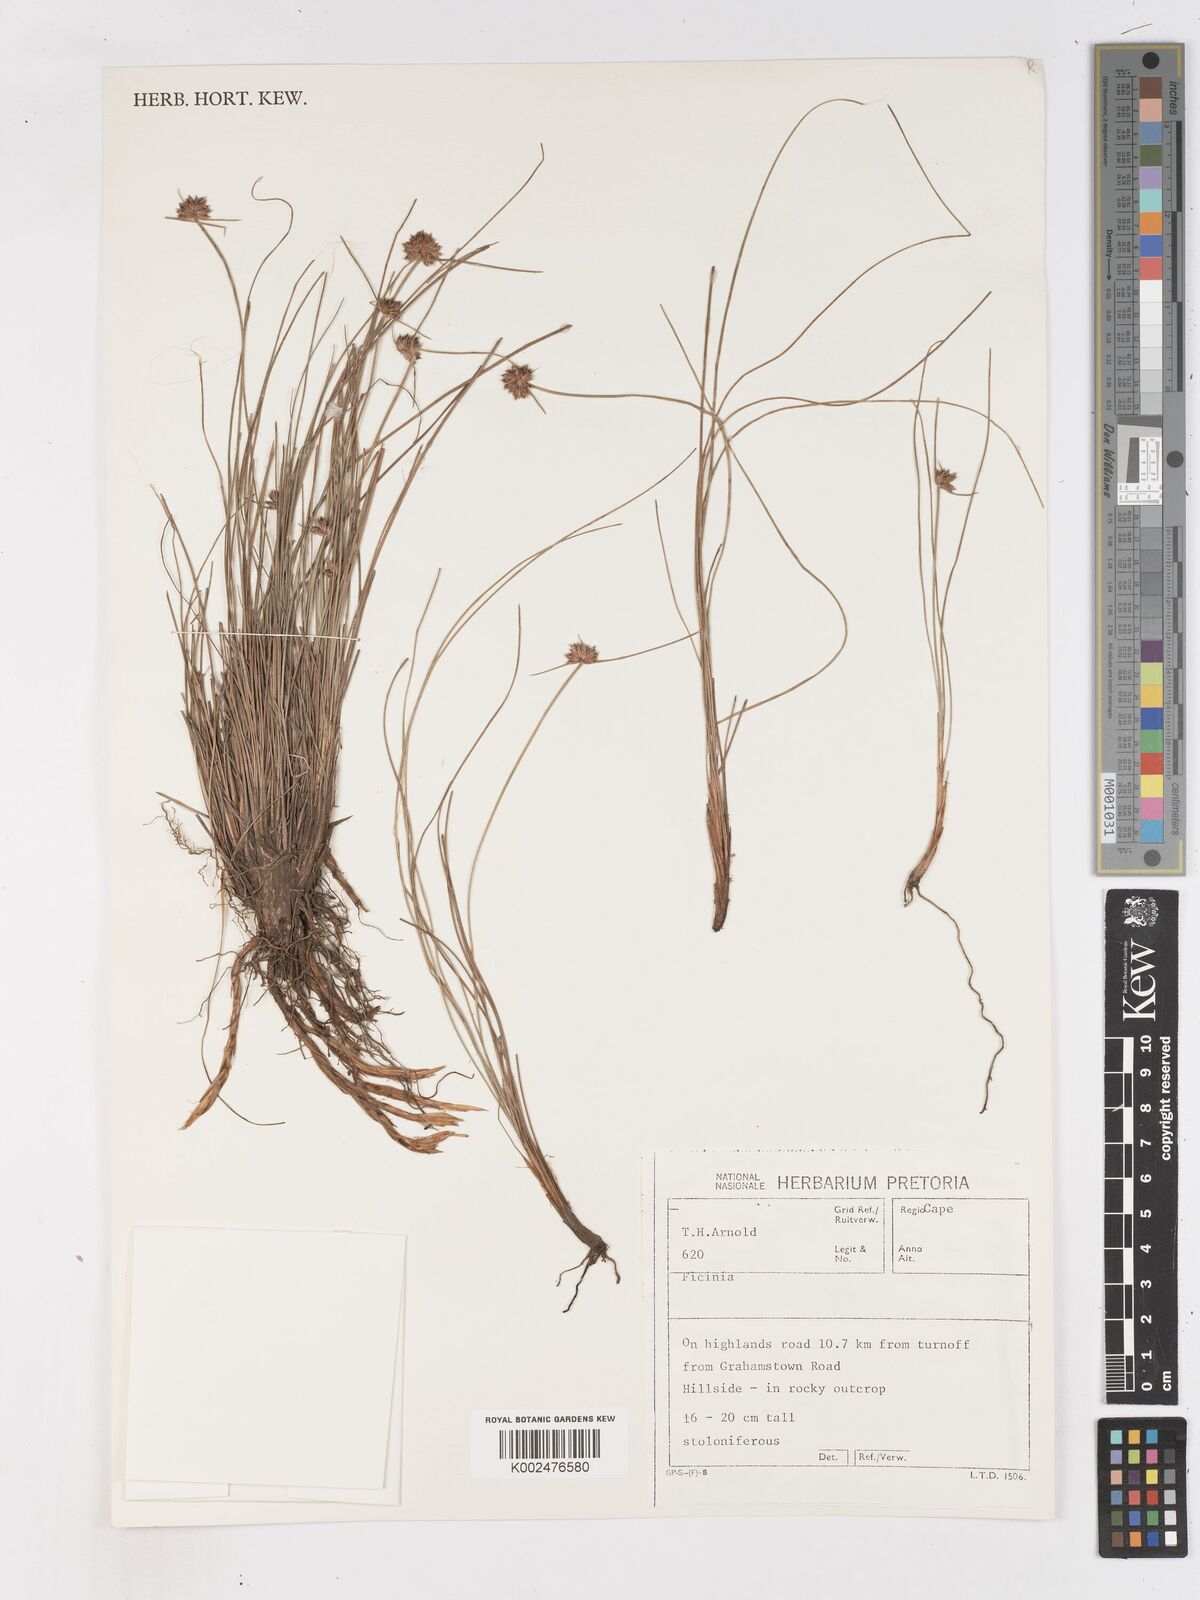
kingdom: Plantae
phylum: Tracheophyta
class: Liliopsida
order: Poales
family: Cyperaceae
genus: Ficinia
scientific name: Ficinia
